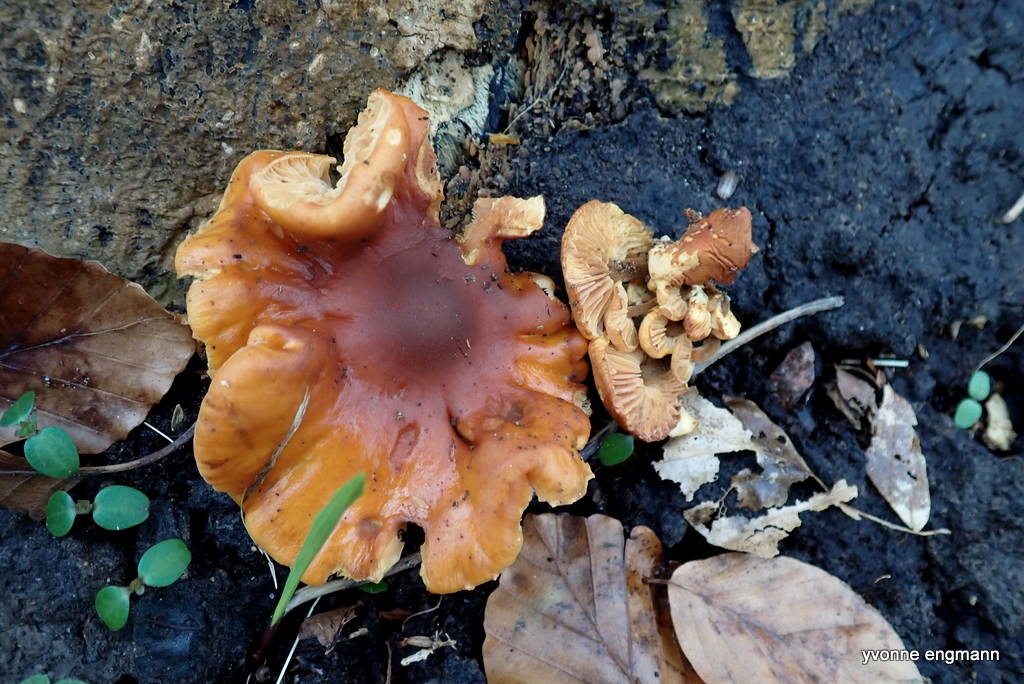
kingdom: Fungi
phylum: Basidiomycota
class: Agaricomycetes
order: Agaricales
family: Physalacriaceae
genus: Flammulina
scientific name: Flammulina
